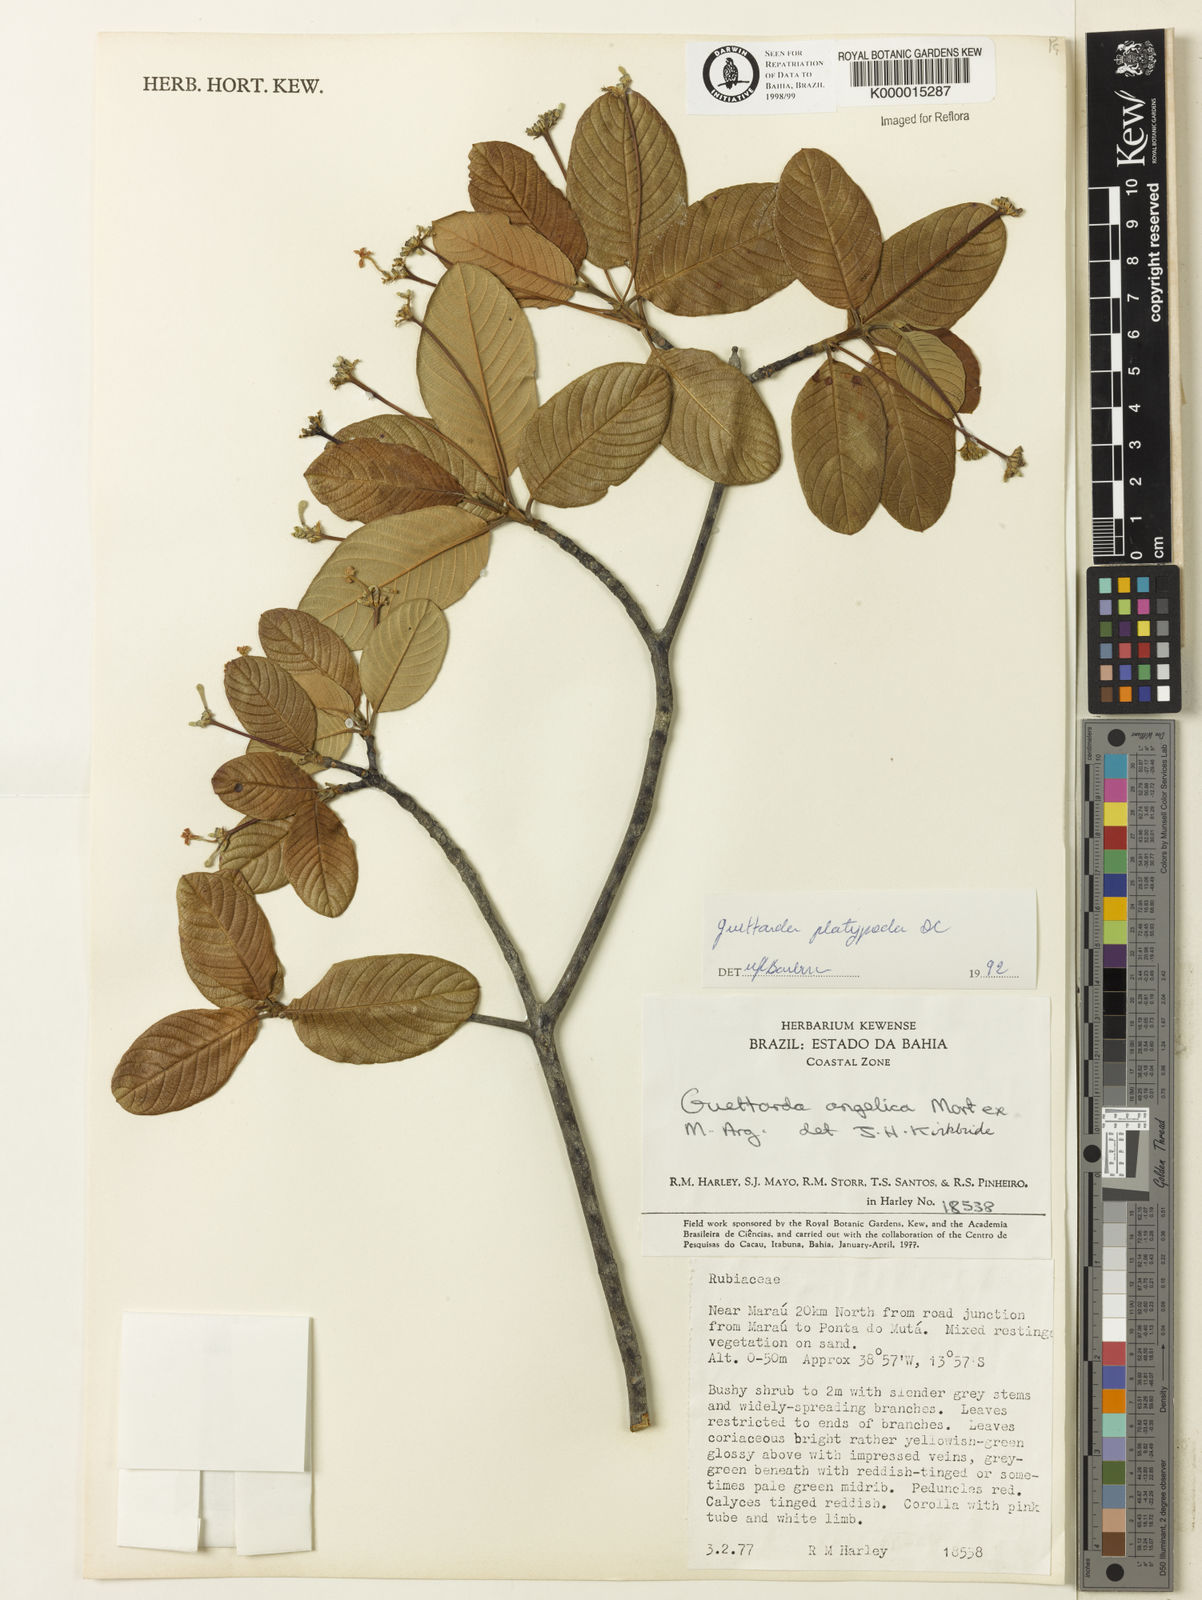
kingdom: Plantae
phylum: Tracheophyta
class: Magnoliopsida
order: Gentianales
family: Rubiaceae
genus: Guettarda
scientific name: Guettarda platypoda
